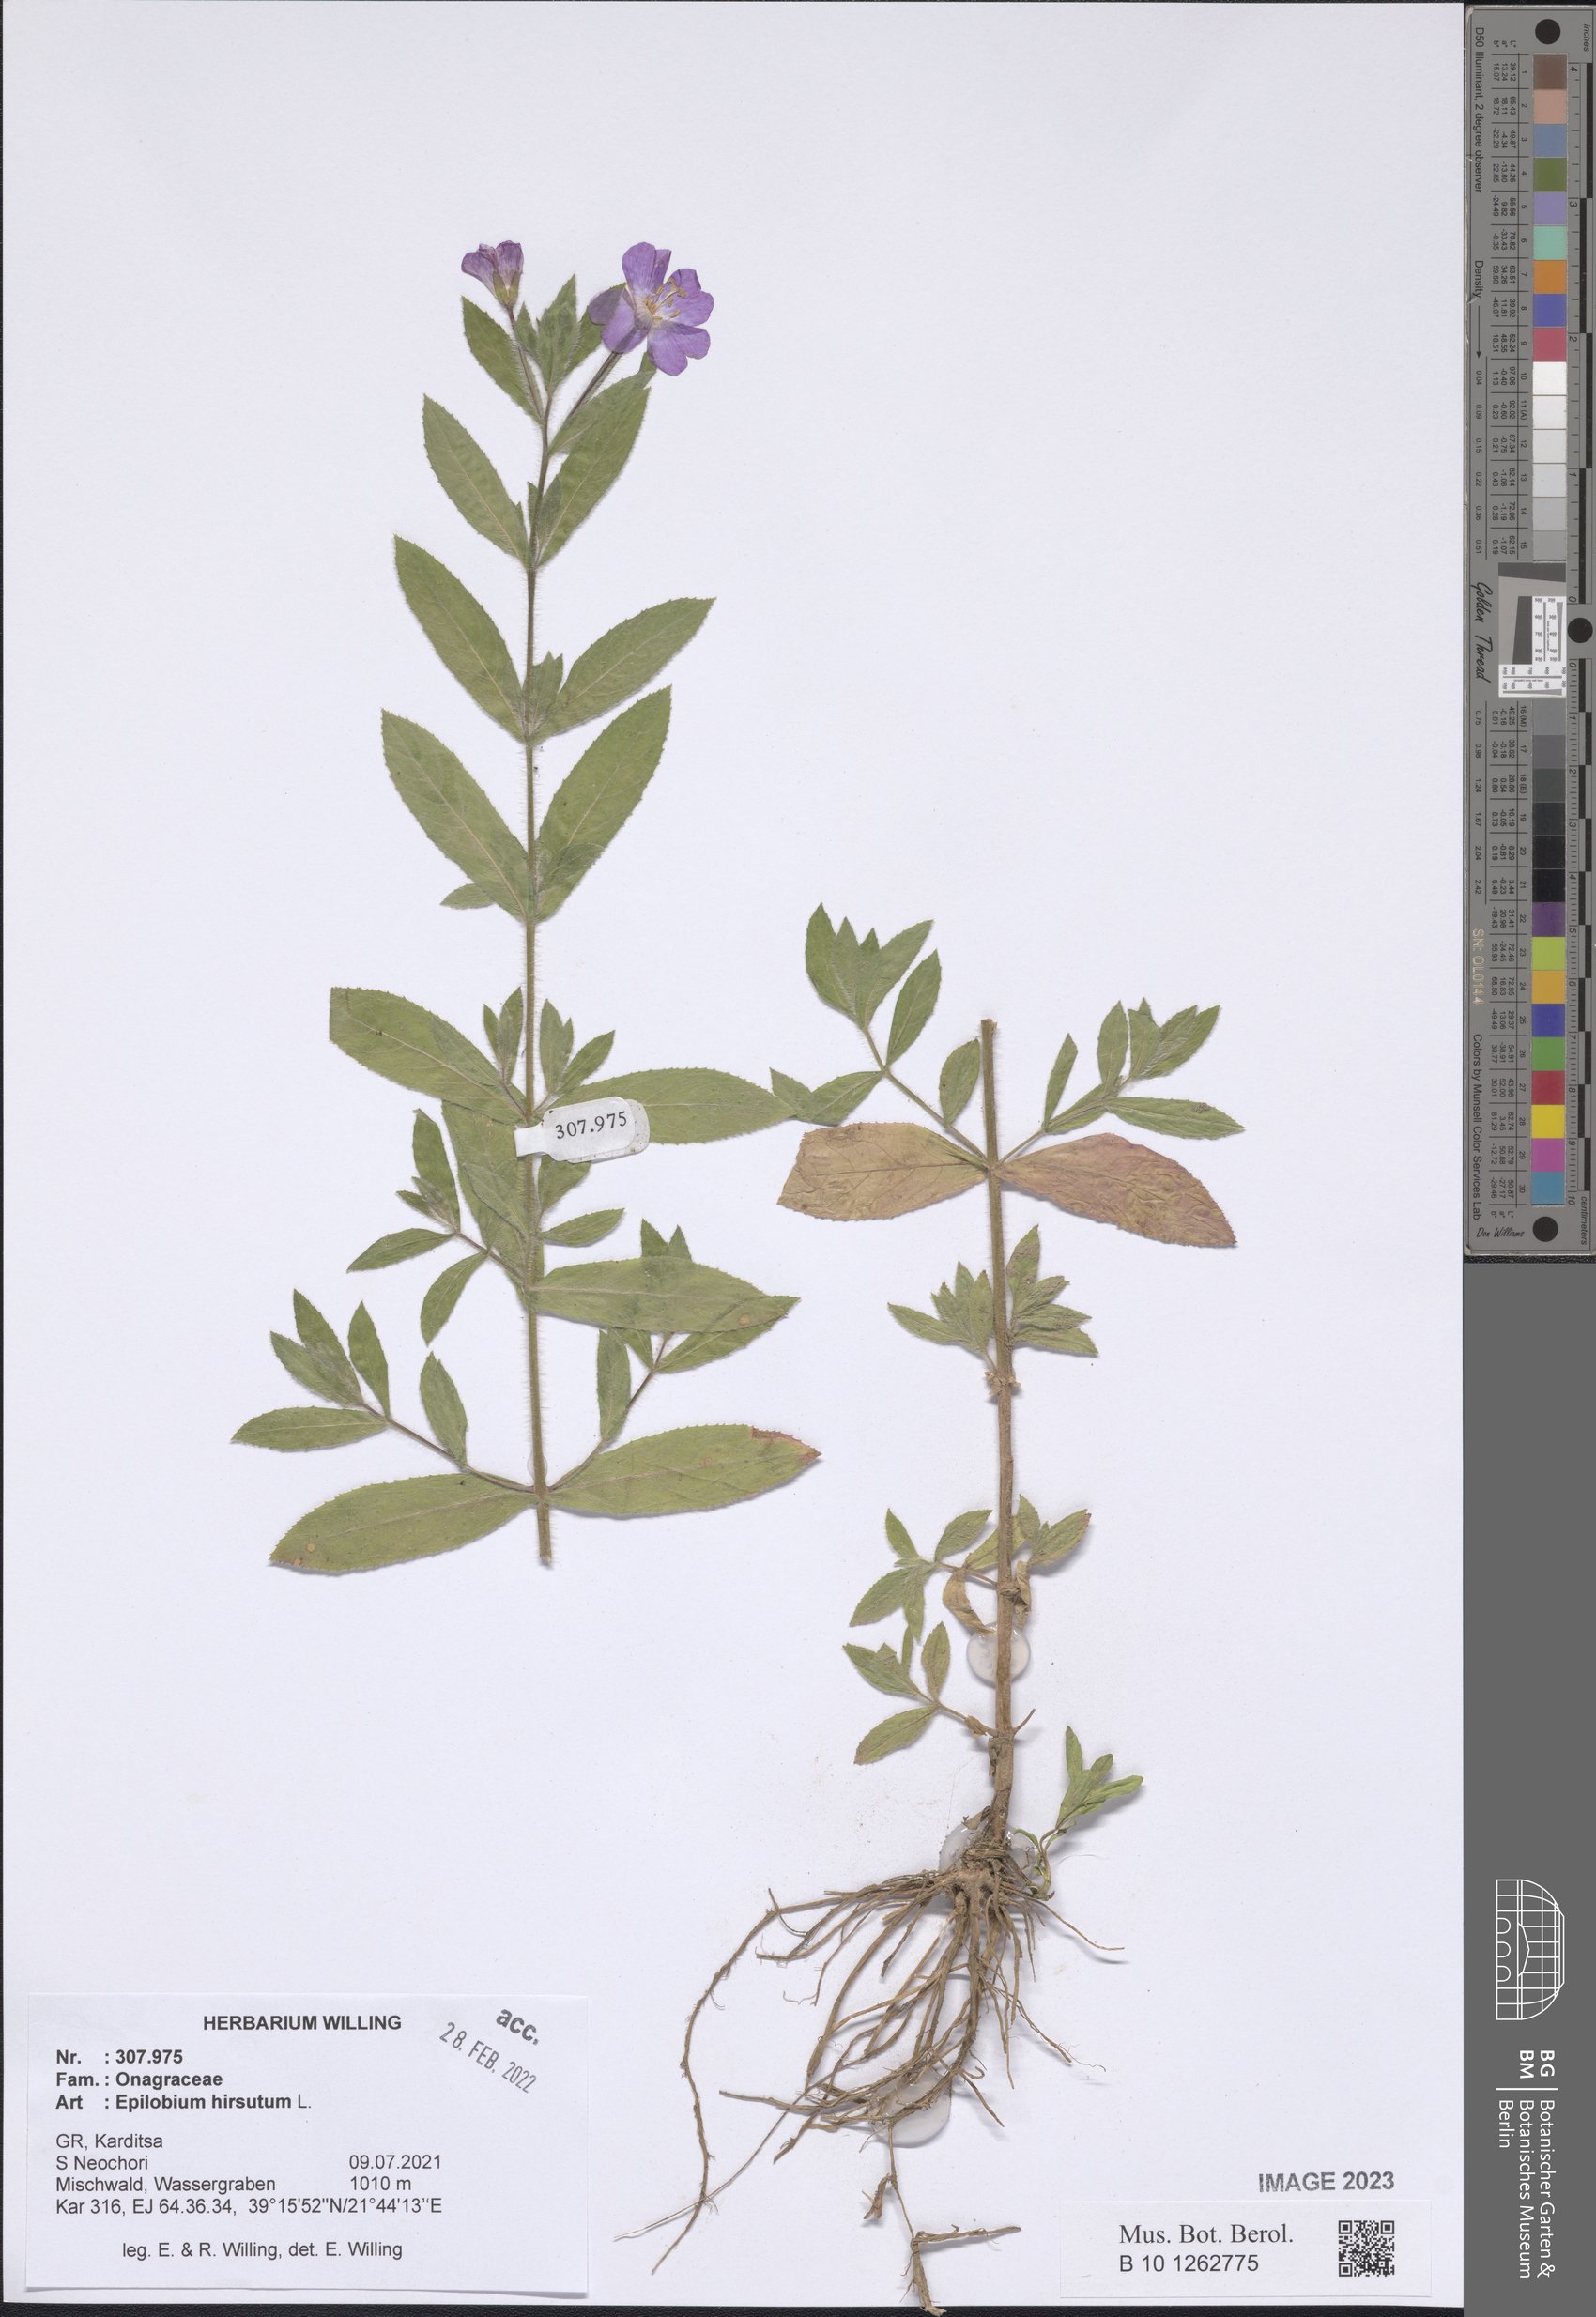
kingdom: Plantae
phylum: Tracheophyta
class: Magnoliopsida
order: Myrtales
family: Onagraceae
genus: Epilobium
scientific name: Epilobium hirsutum
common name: Great willowherb
